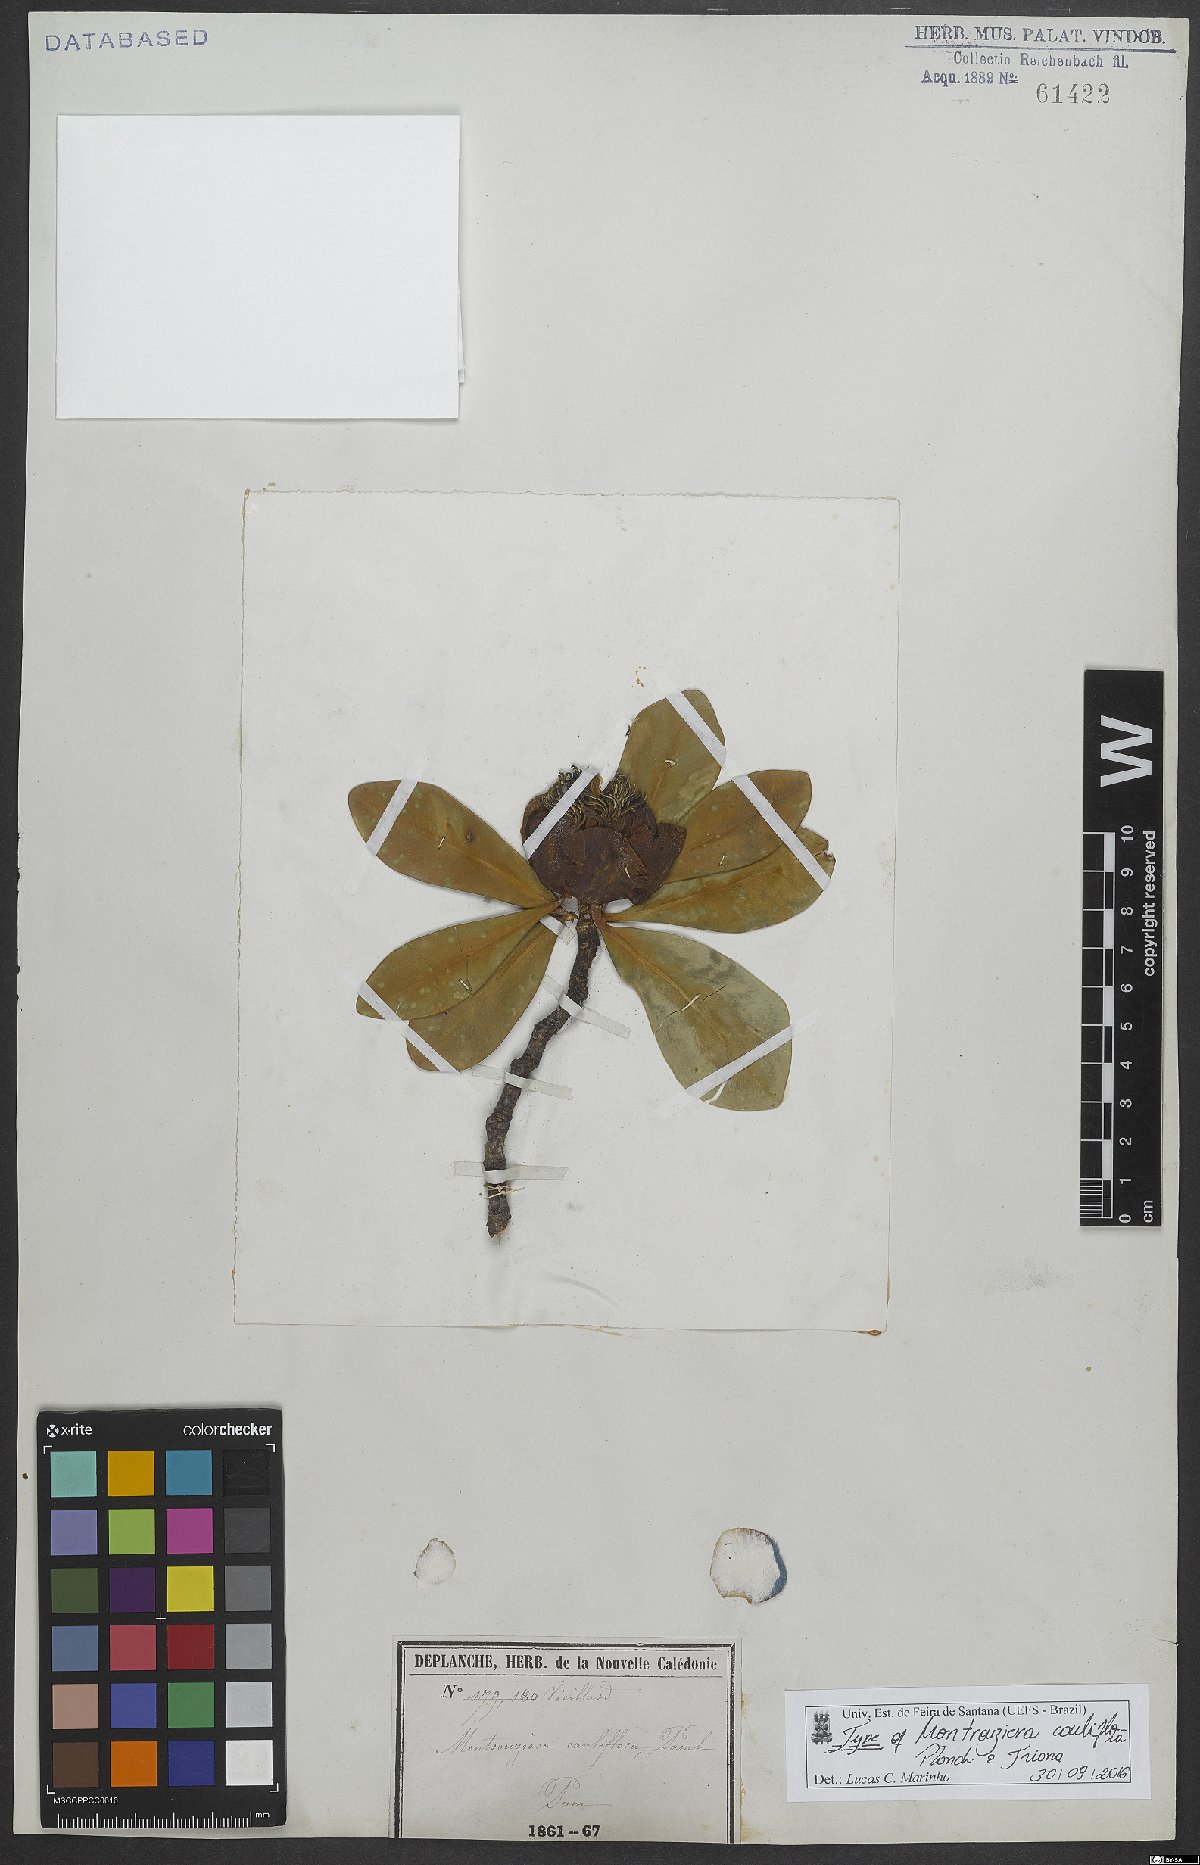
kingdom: Plantae
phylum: Tracheophyta
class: Magnoliopsida
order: Malpighiales
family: Clusiaceae
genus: Montrouziera
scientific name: Montrouziera cauliflora
